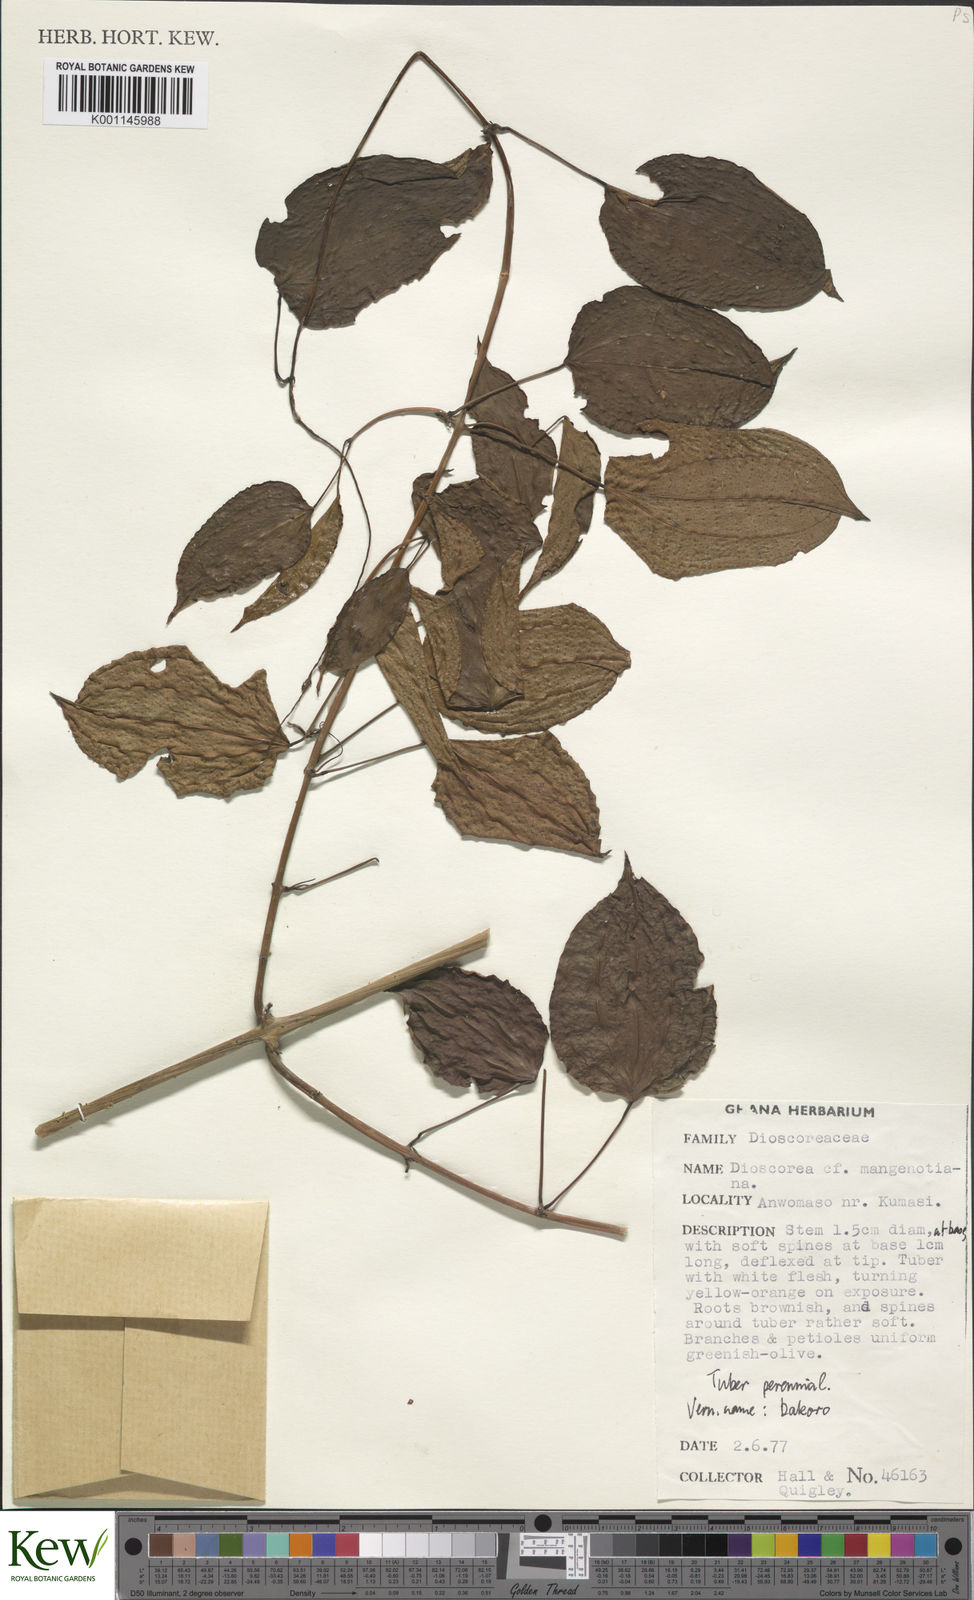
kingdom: Plantae
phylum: Tracheophyta
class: Liliopsida
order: Dioscoreales
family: Dioscoreaceae
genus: Dioscorea
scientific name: Dioscorea
